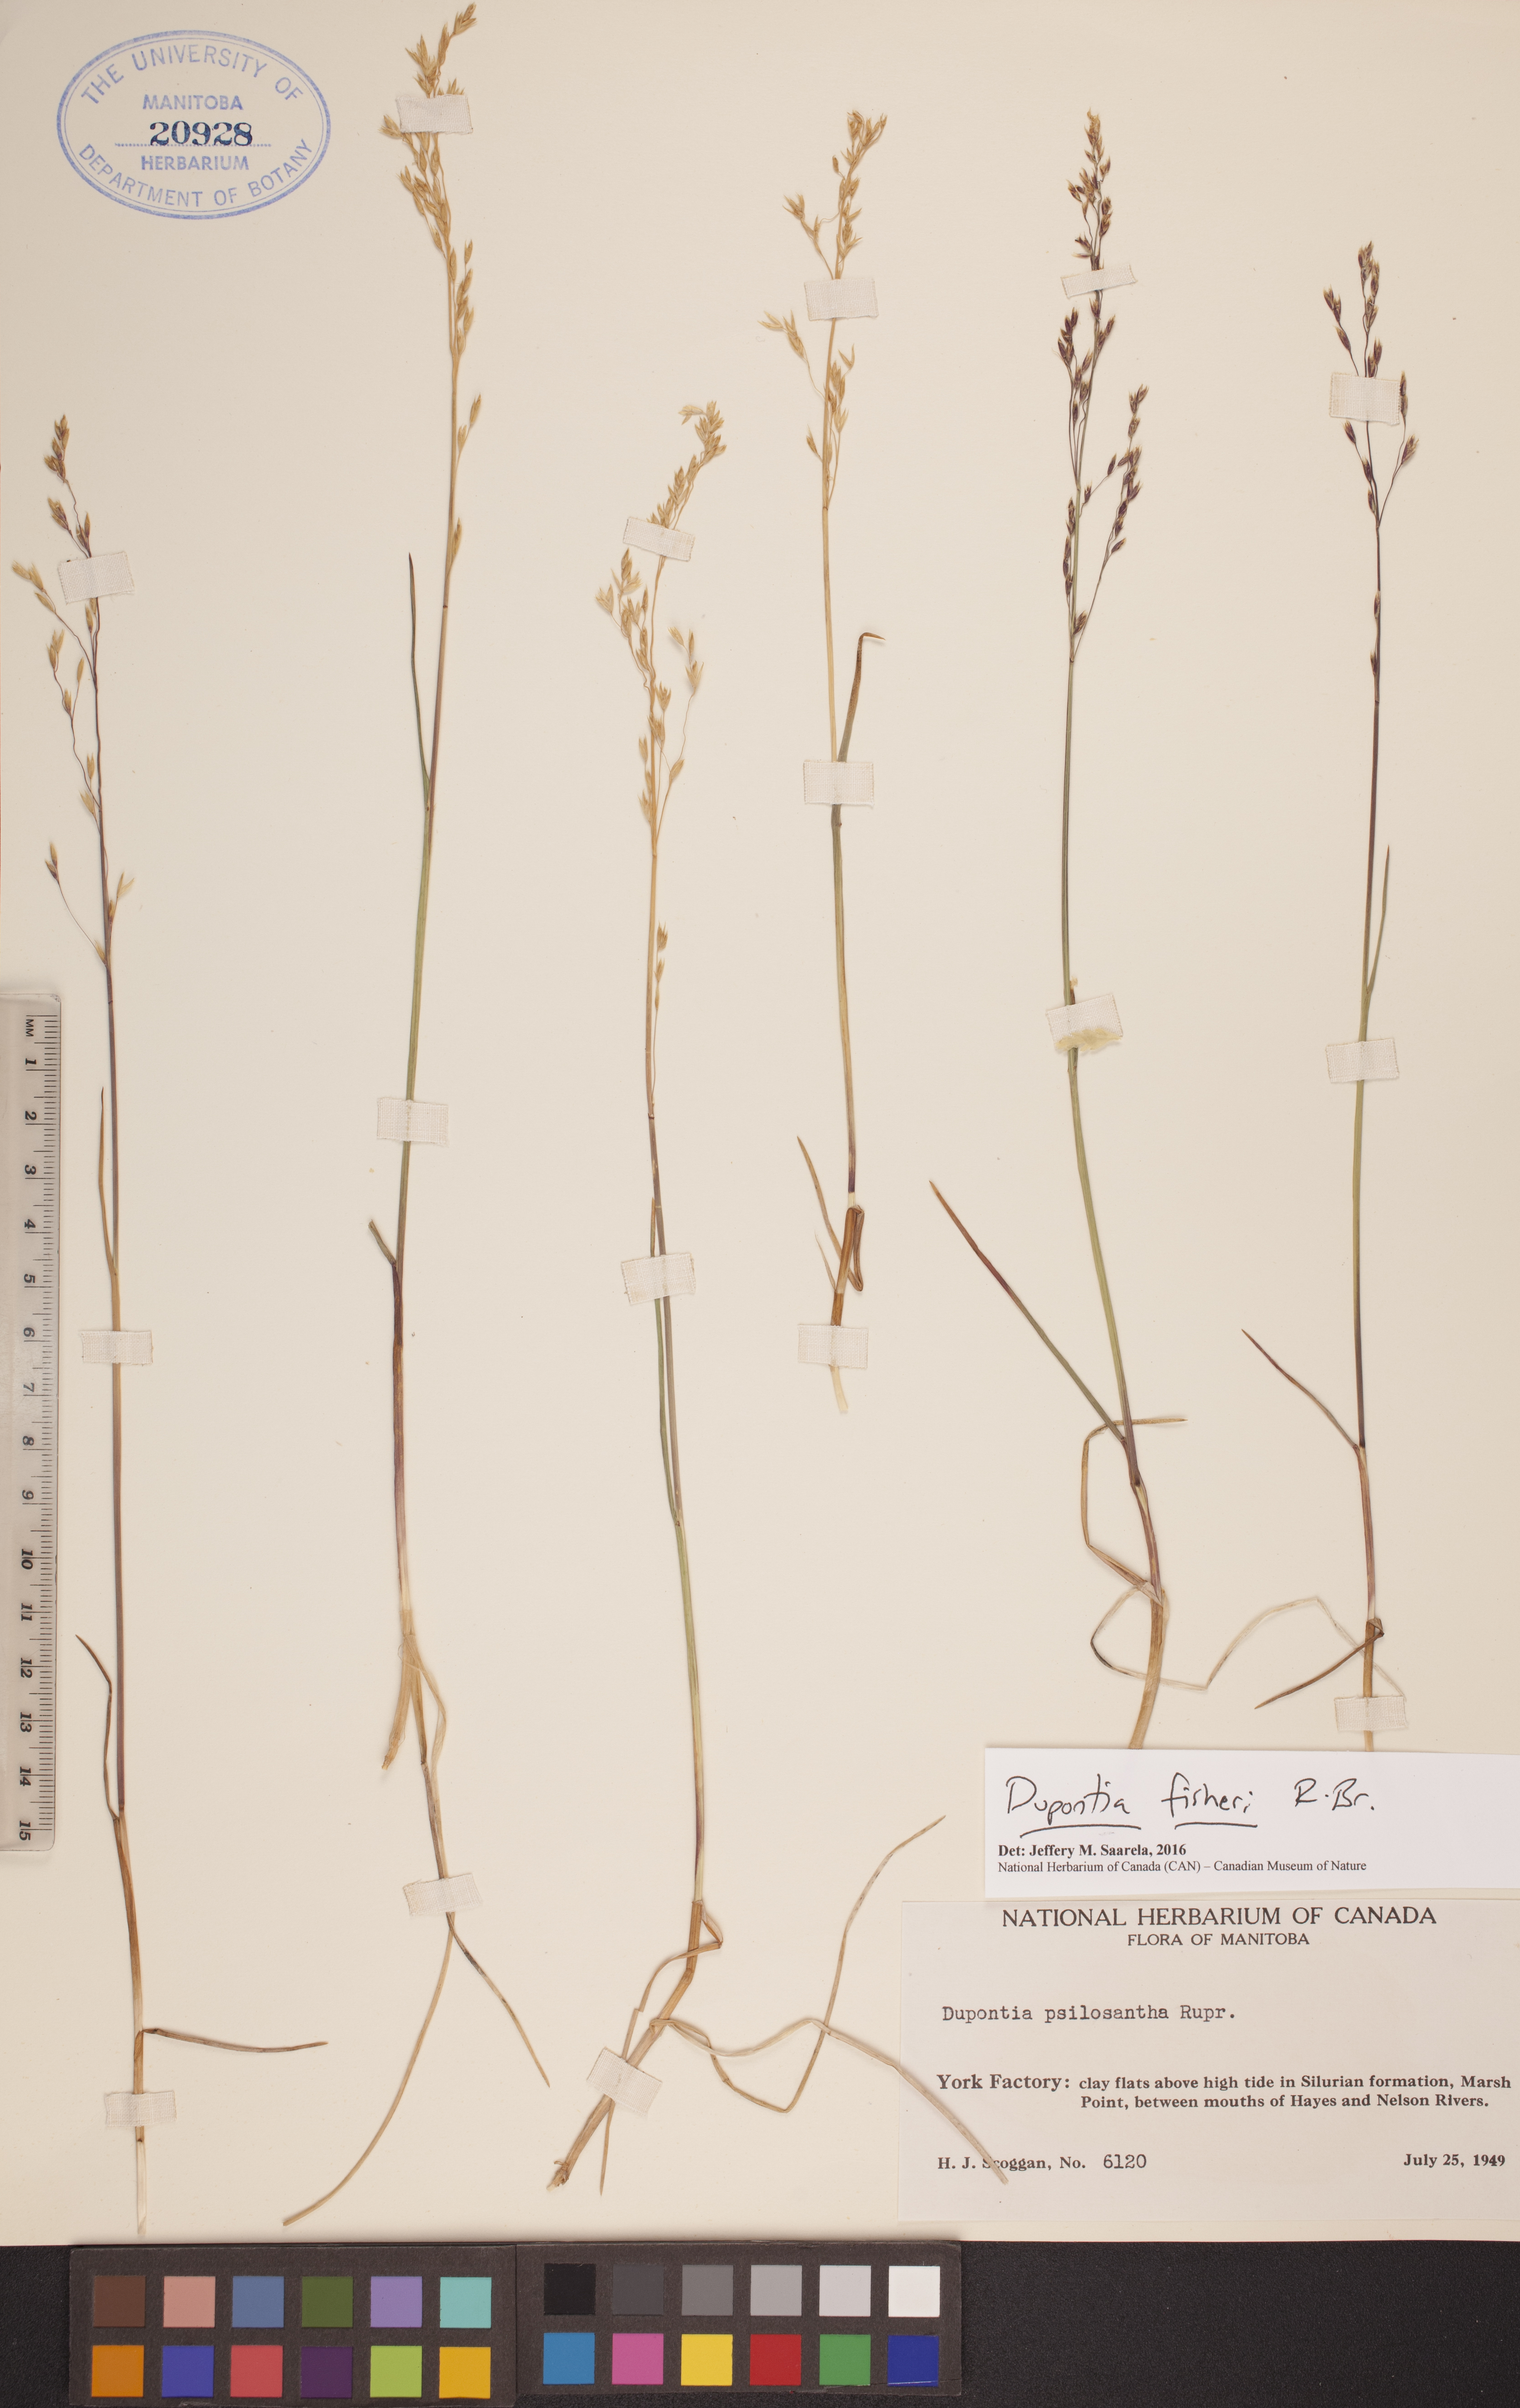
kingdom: Plantae
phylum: Tracheophyta
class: Liliopsida
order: Poales
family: Poaceae
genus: Dupontia
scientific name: Dupontia fisheri
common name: Tundra grass
